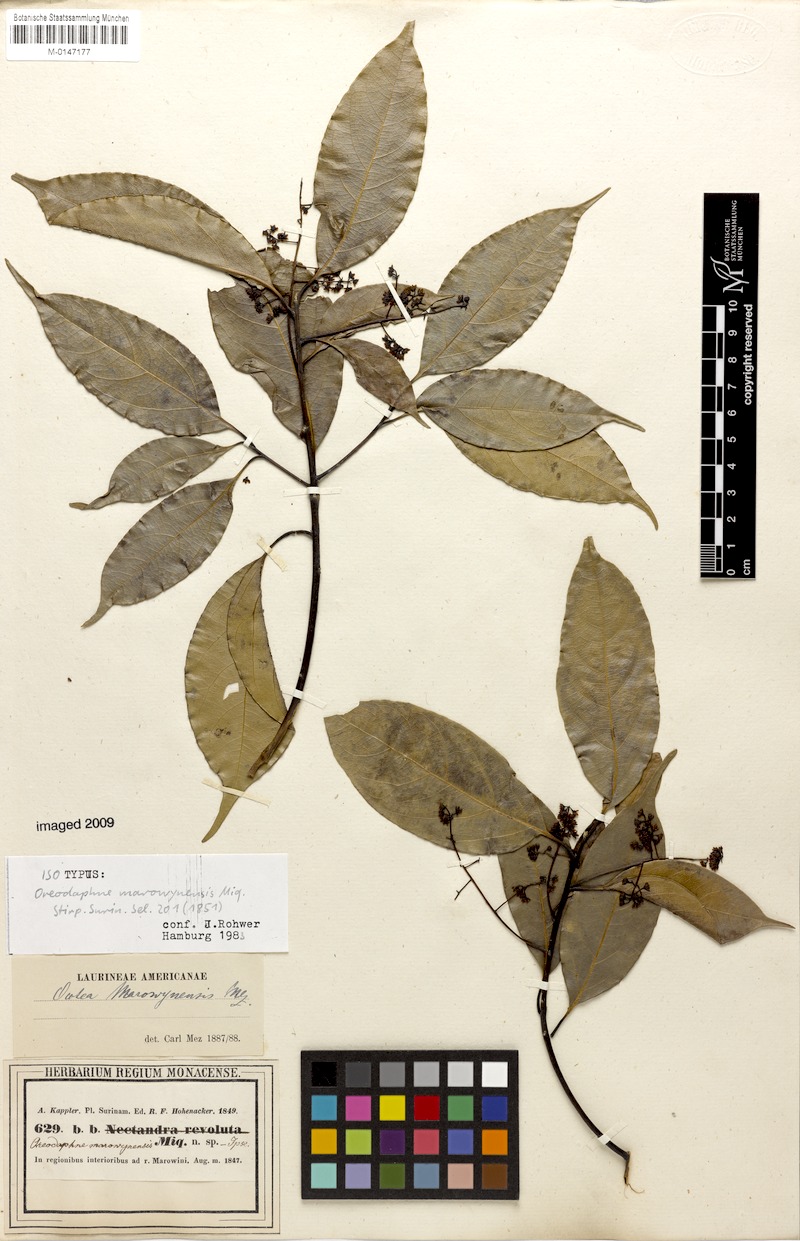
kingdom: Plantae
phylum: Tracheophyta
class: Magnoliopsida
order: Laurales
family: Lauraceae
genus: Ocotea
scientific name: Ocotea leptobotra
